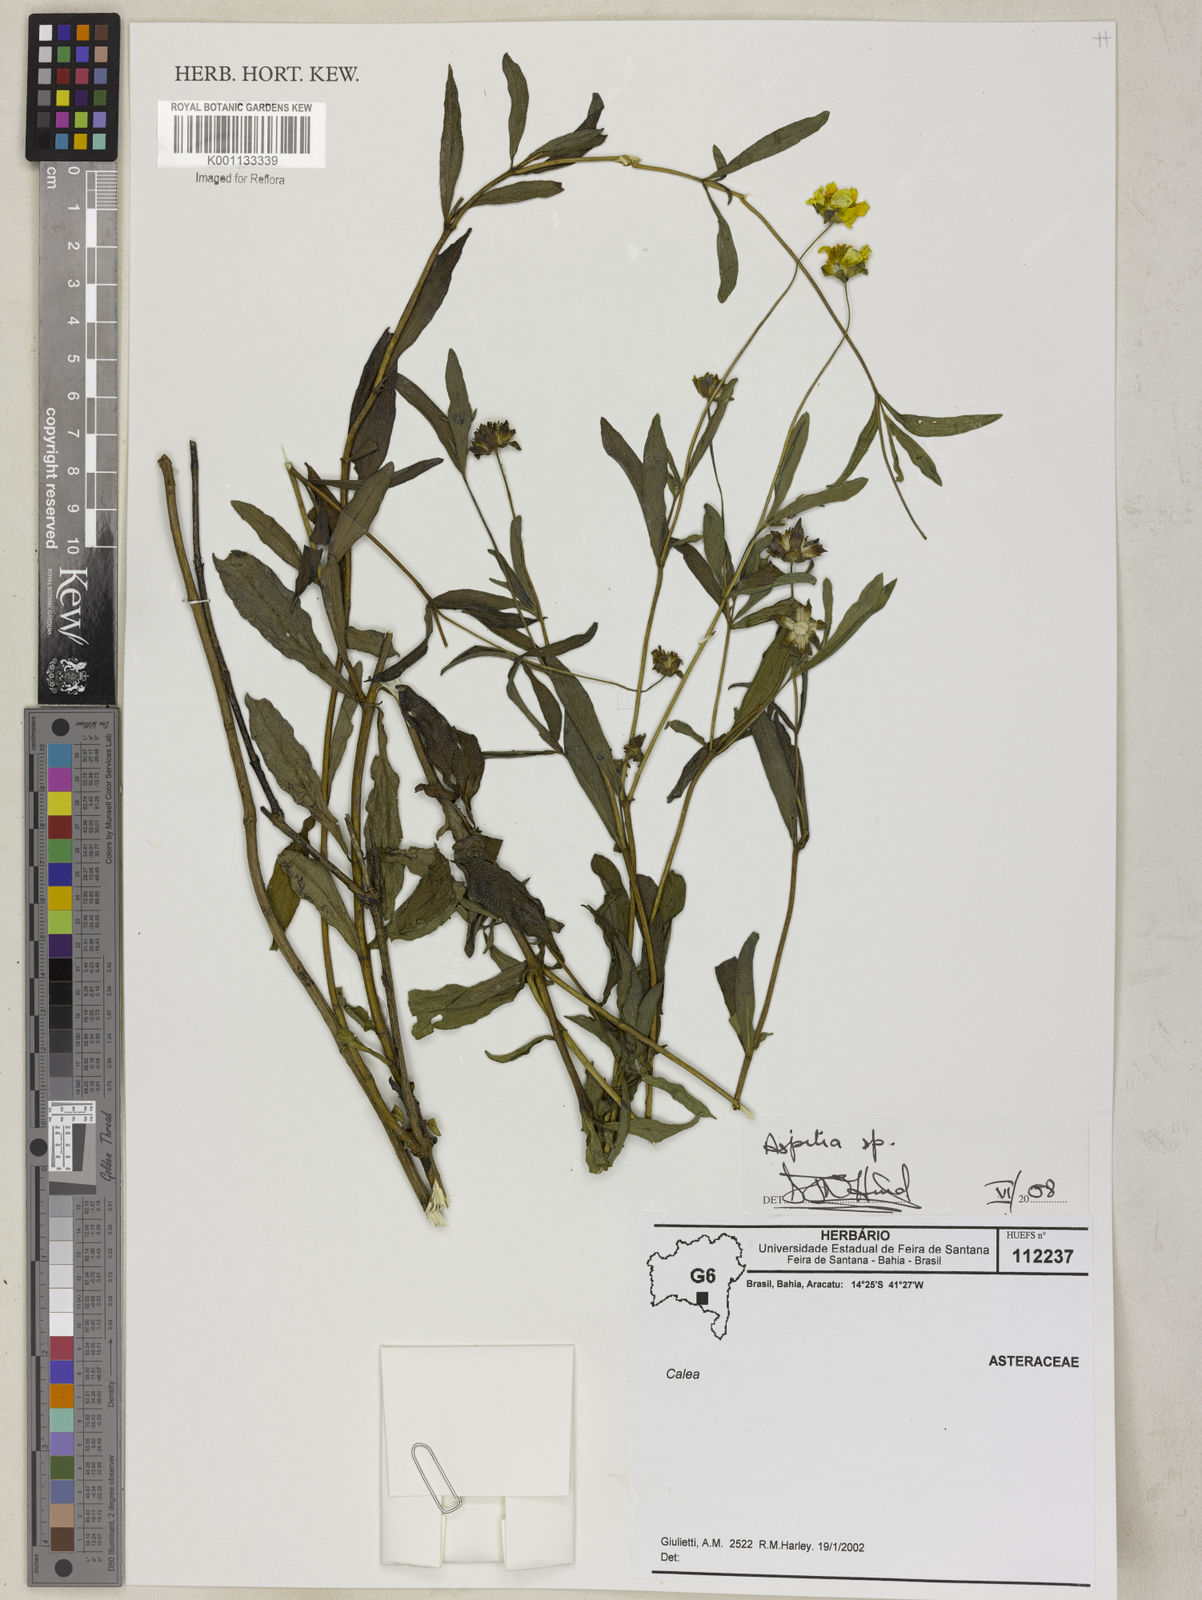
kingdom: Plantae
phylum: Tracheophyta
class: Magnoliopsida
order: Asterales
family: Asteraceae
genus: Aspilia
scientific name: Aspilia
